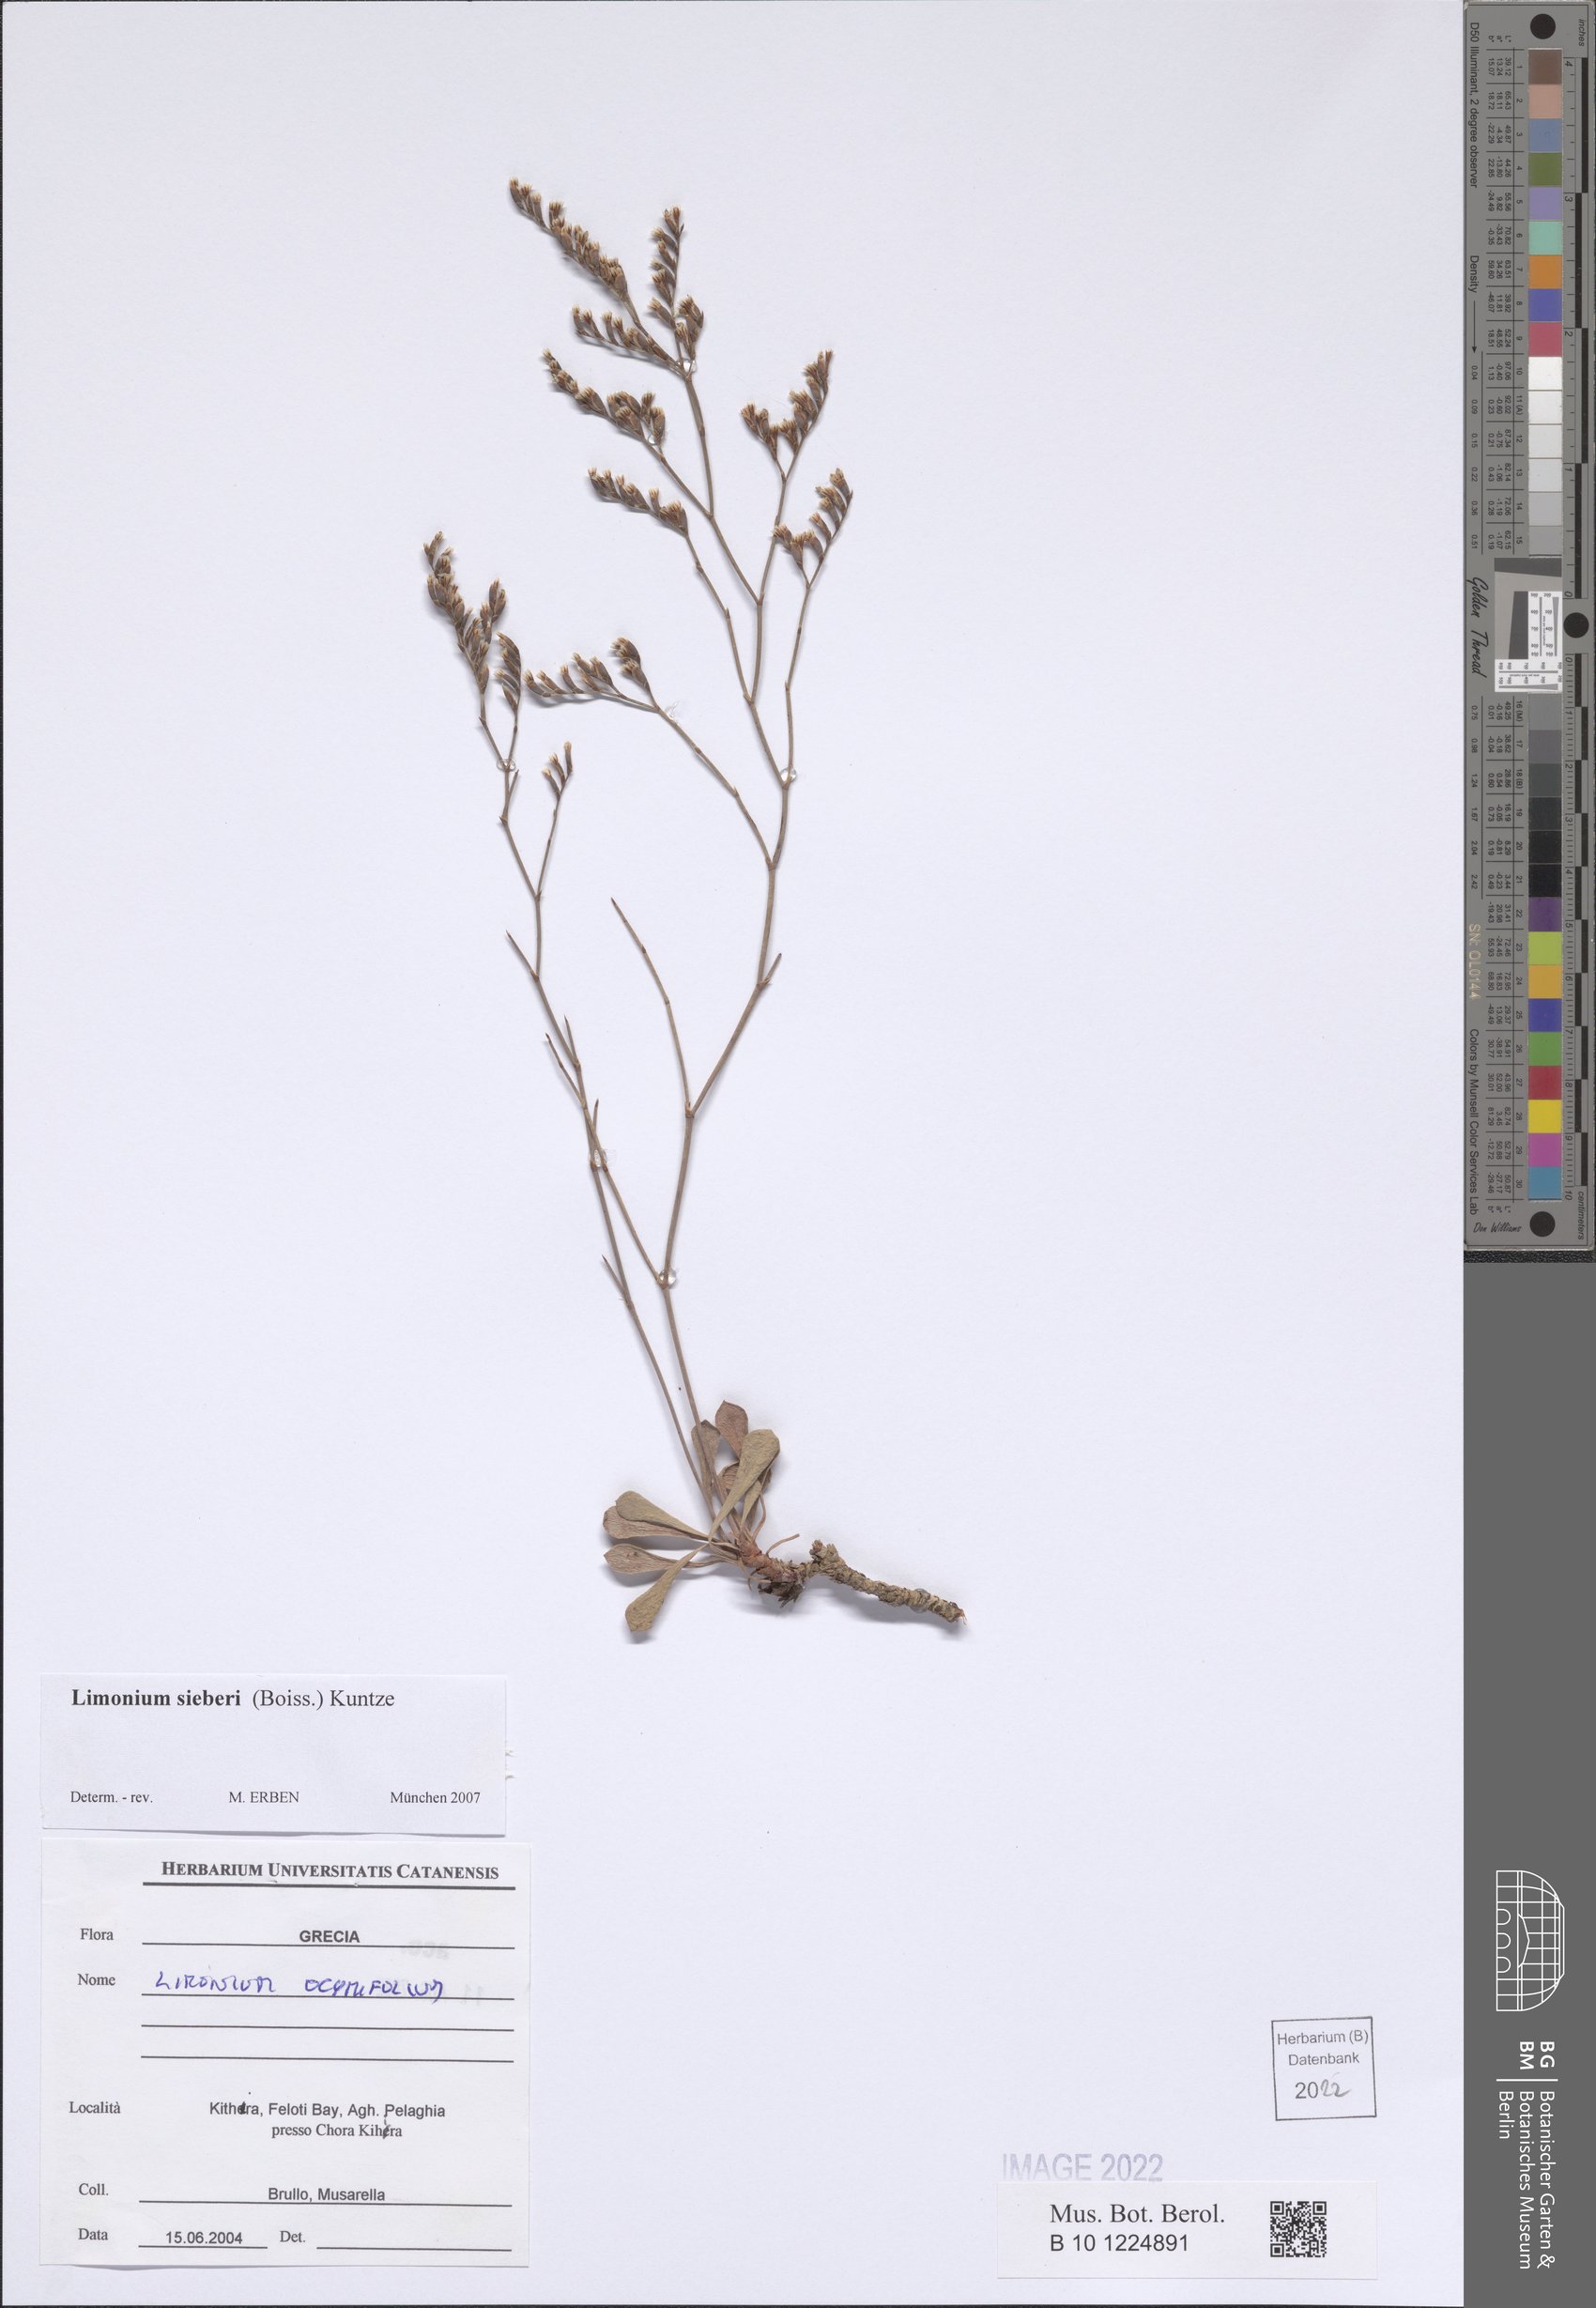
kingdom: Plantae
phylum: Tracheophyta
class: Magnoliopsida
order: Caryophyllales
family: Plumbaginaceae
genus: Limonium
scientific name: Limonium sieberi
